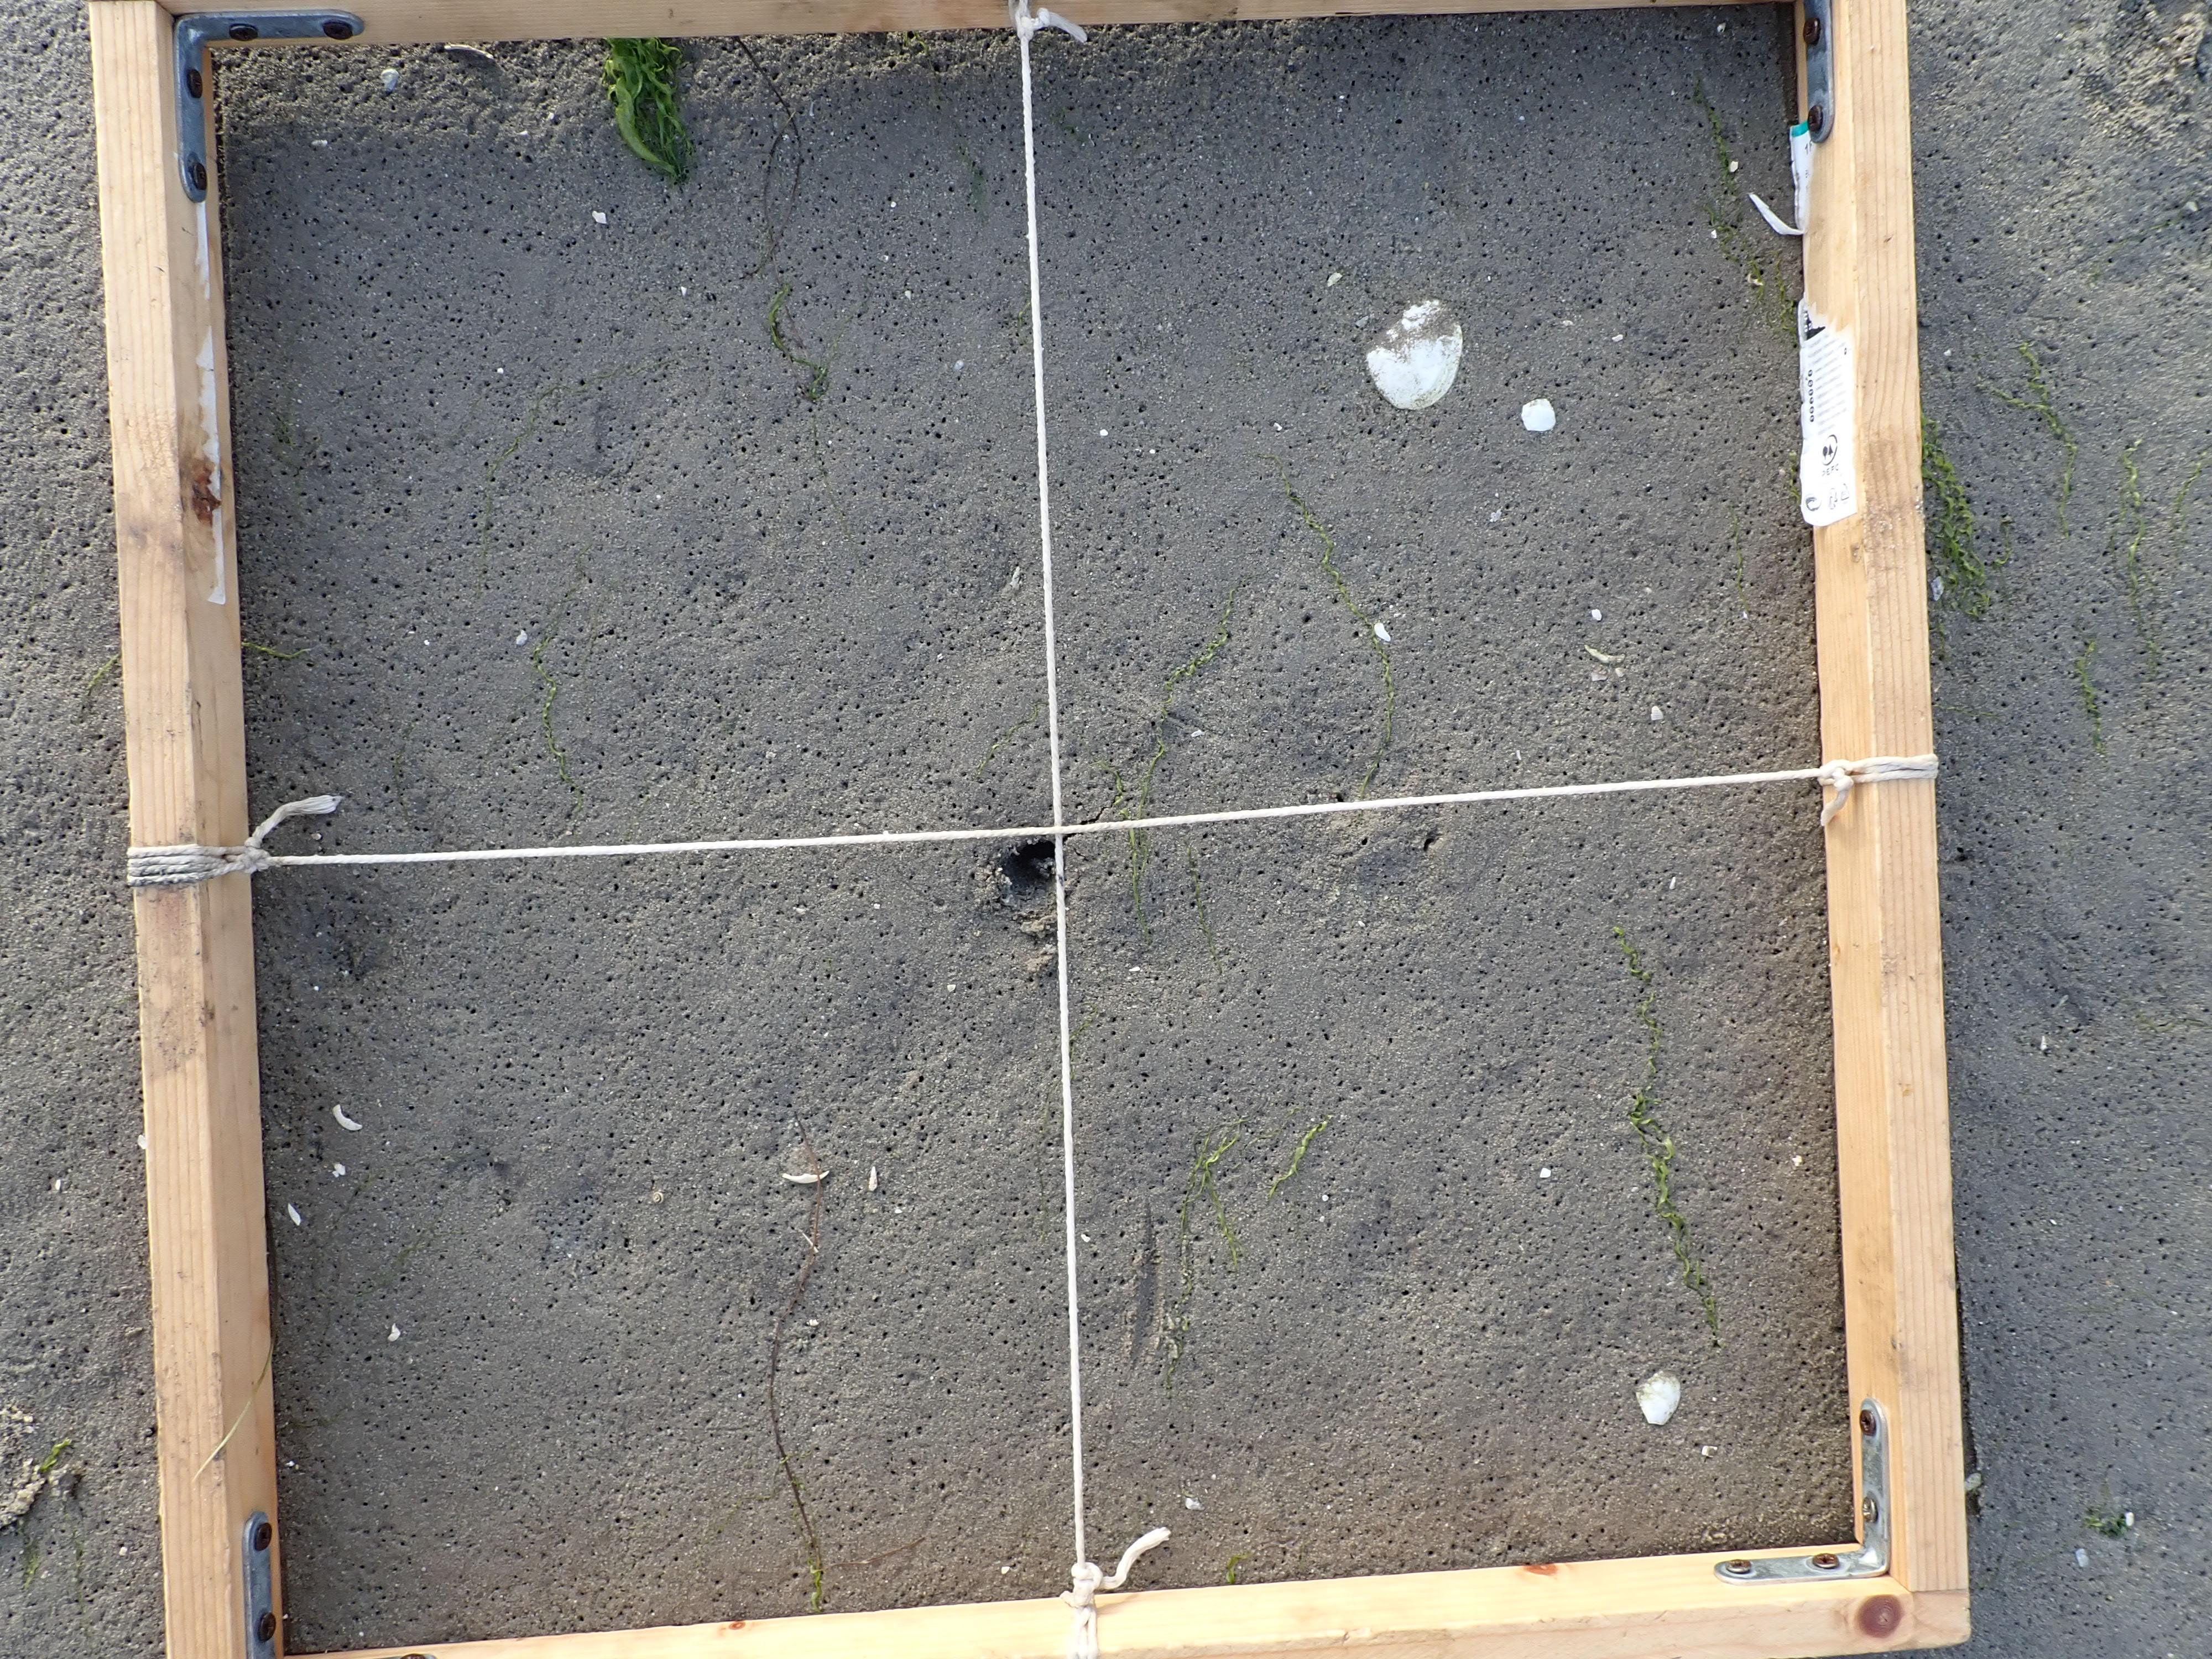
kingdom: Plantae
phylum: Chlorophyta
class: Ulvophyceae
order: Ulvales
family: Ulvaceae
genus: Ulva
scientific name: Ulva
